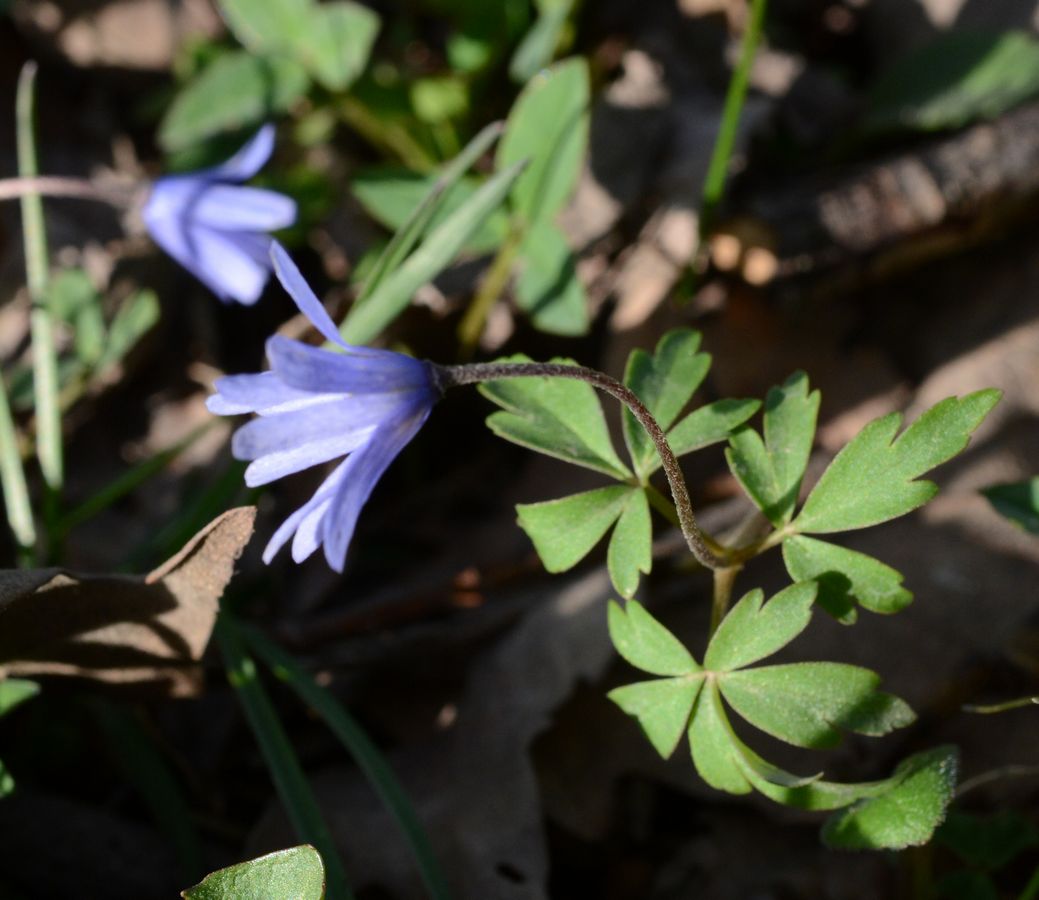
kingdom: Plantae
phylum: Tracheophyta
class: Magnoliopsida
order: Ranunculales
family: Ranunculaceae
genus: Anemone
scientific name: Anemone caucasica
